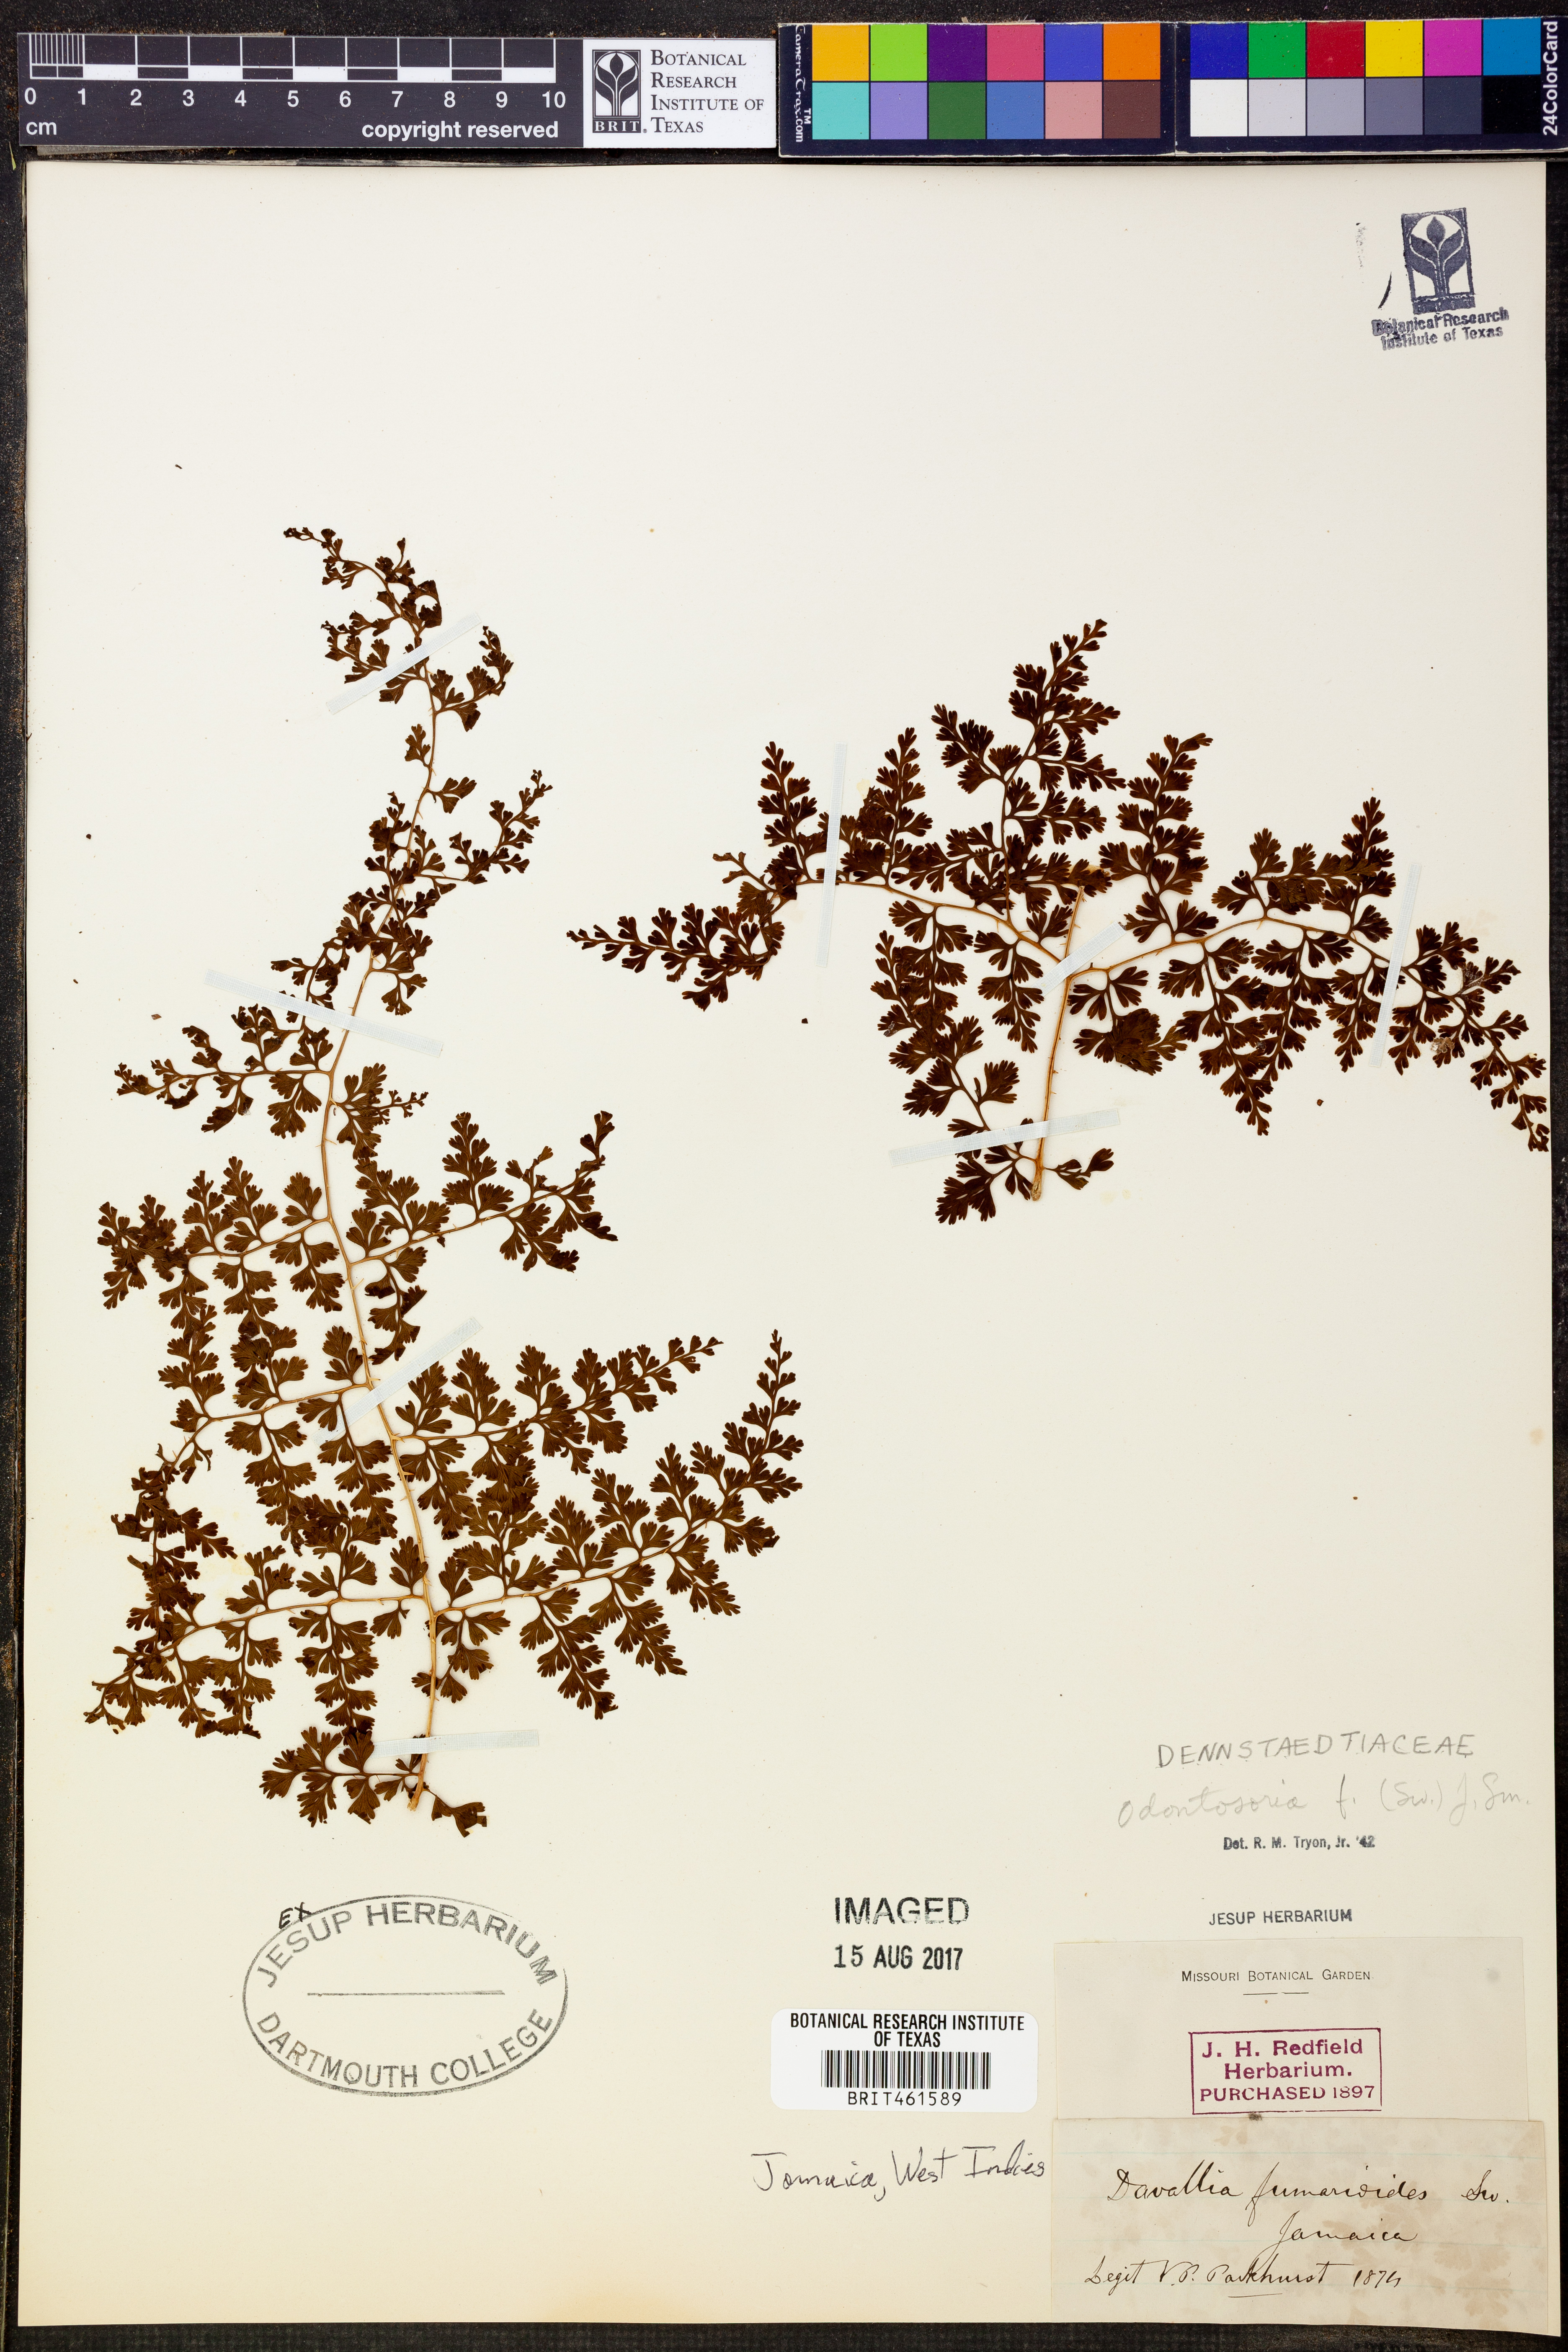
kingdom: Plantae
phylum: Tracheophyta
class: Polypodiopsida
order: Polypodiales
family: Lindsaeaceae
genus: Odontosoria
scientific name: Odontosoria fumarioides
